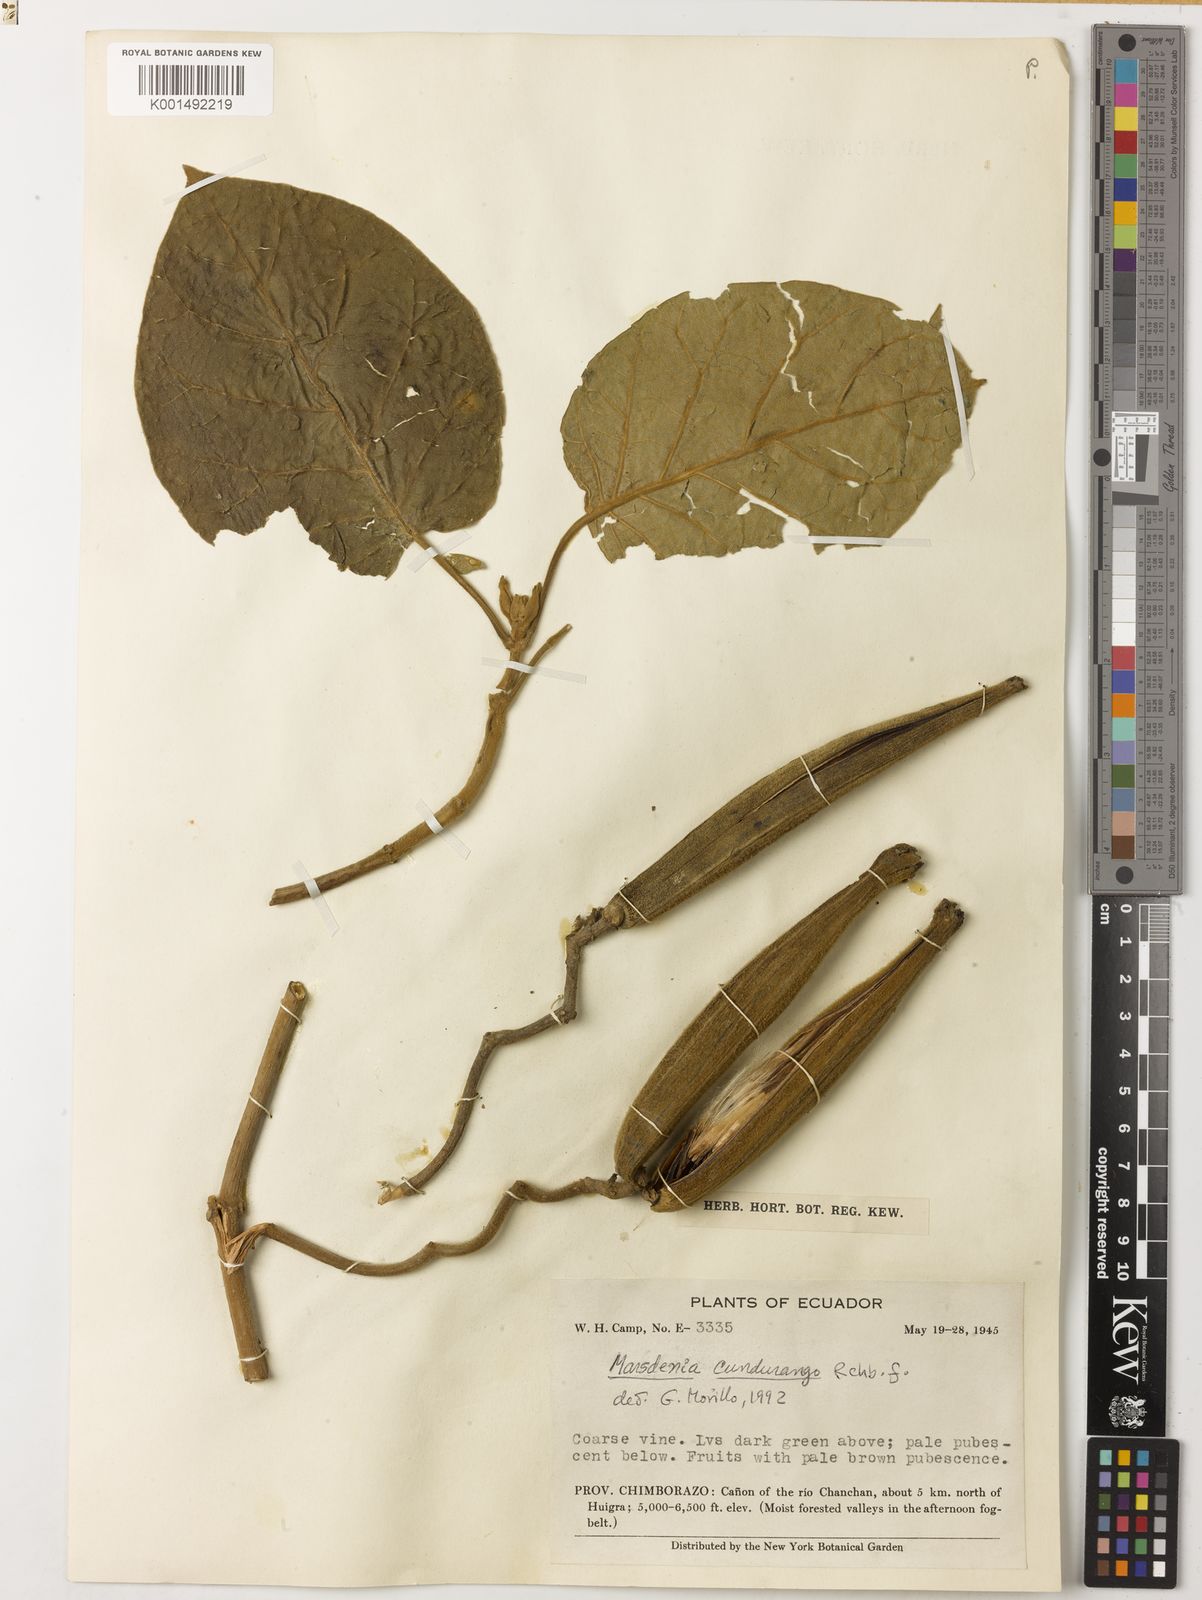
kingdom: Plantae
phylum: Tracheophyta
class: Magnoliopsida
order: Gentianales
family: Apocynaceae
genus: Ruehssia
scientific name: Ruehssia cundurango
